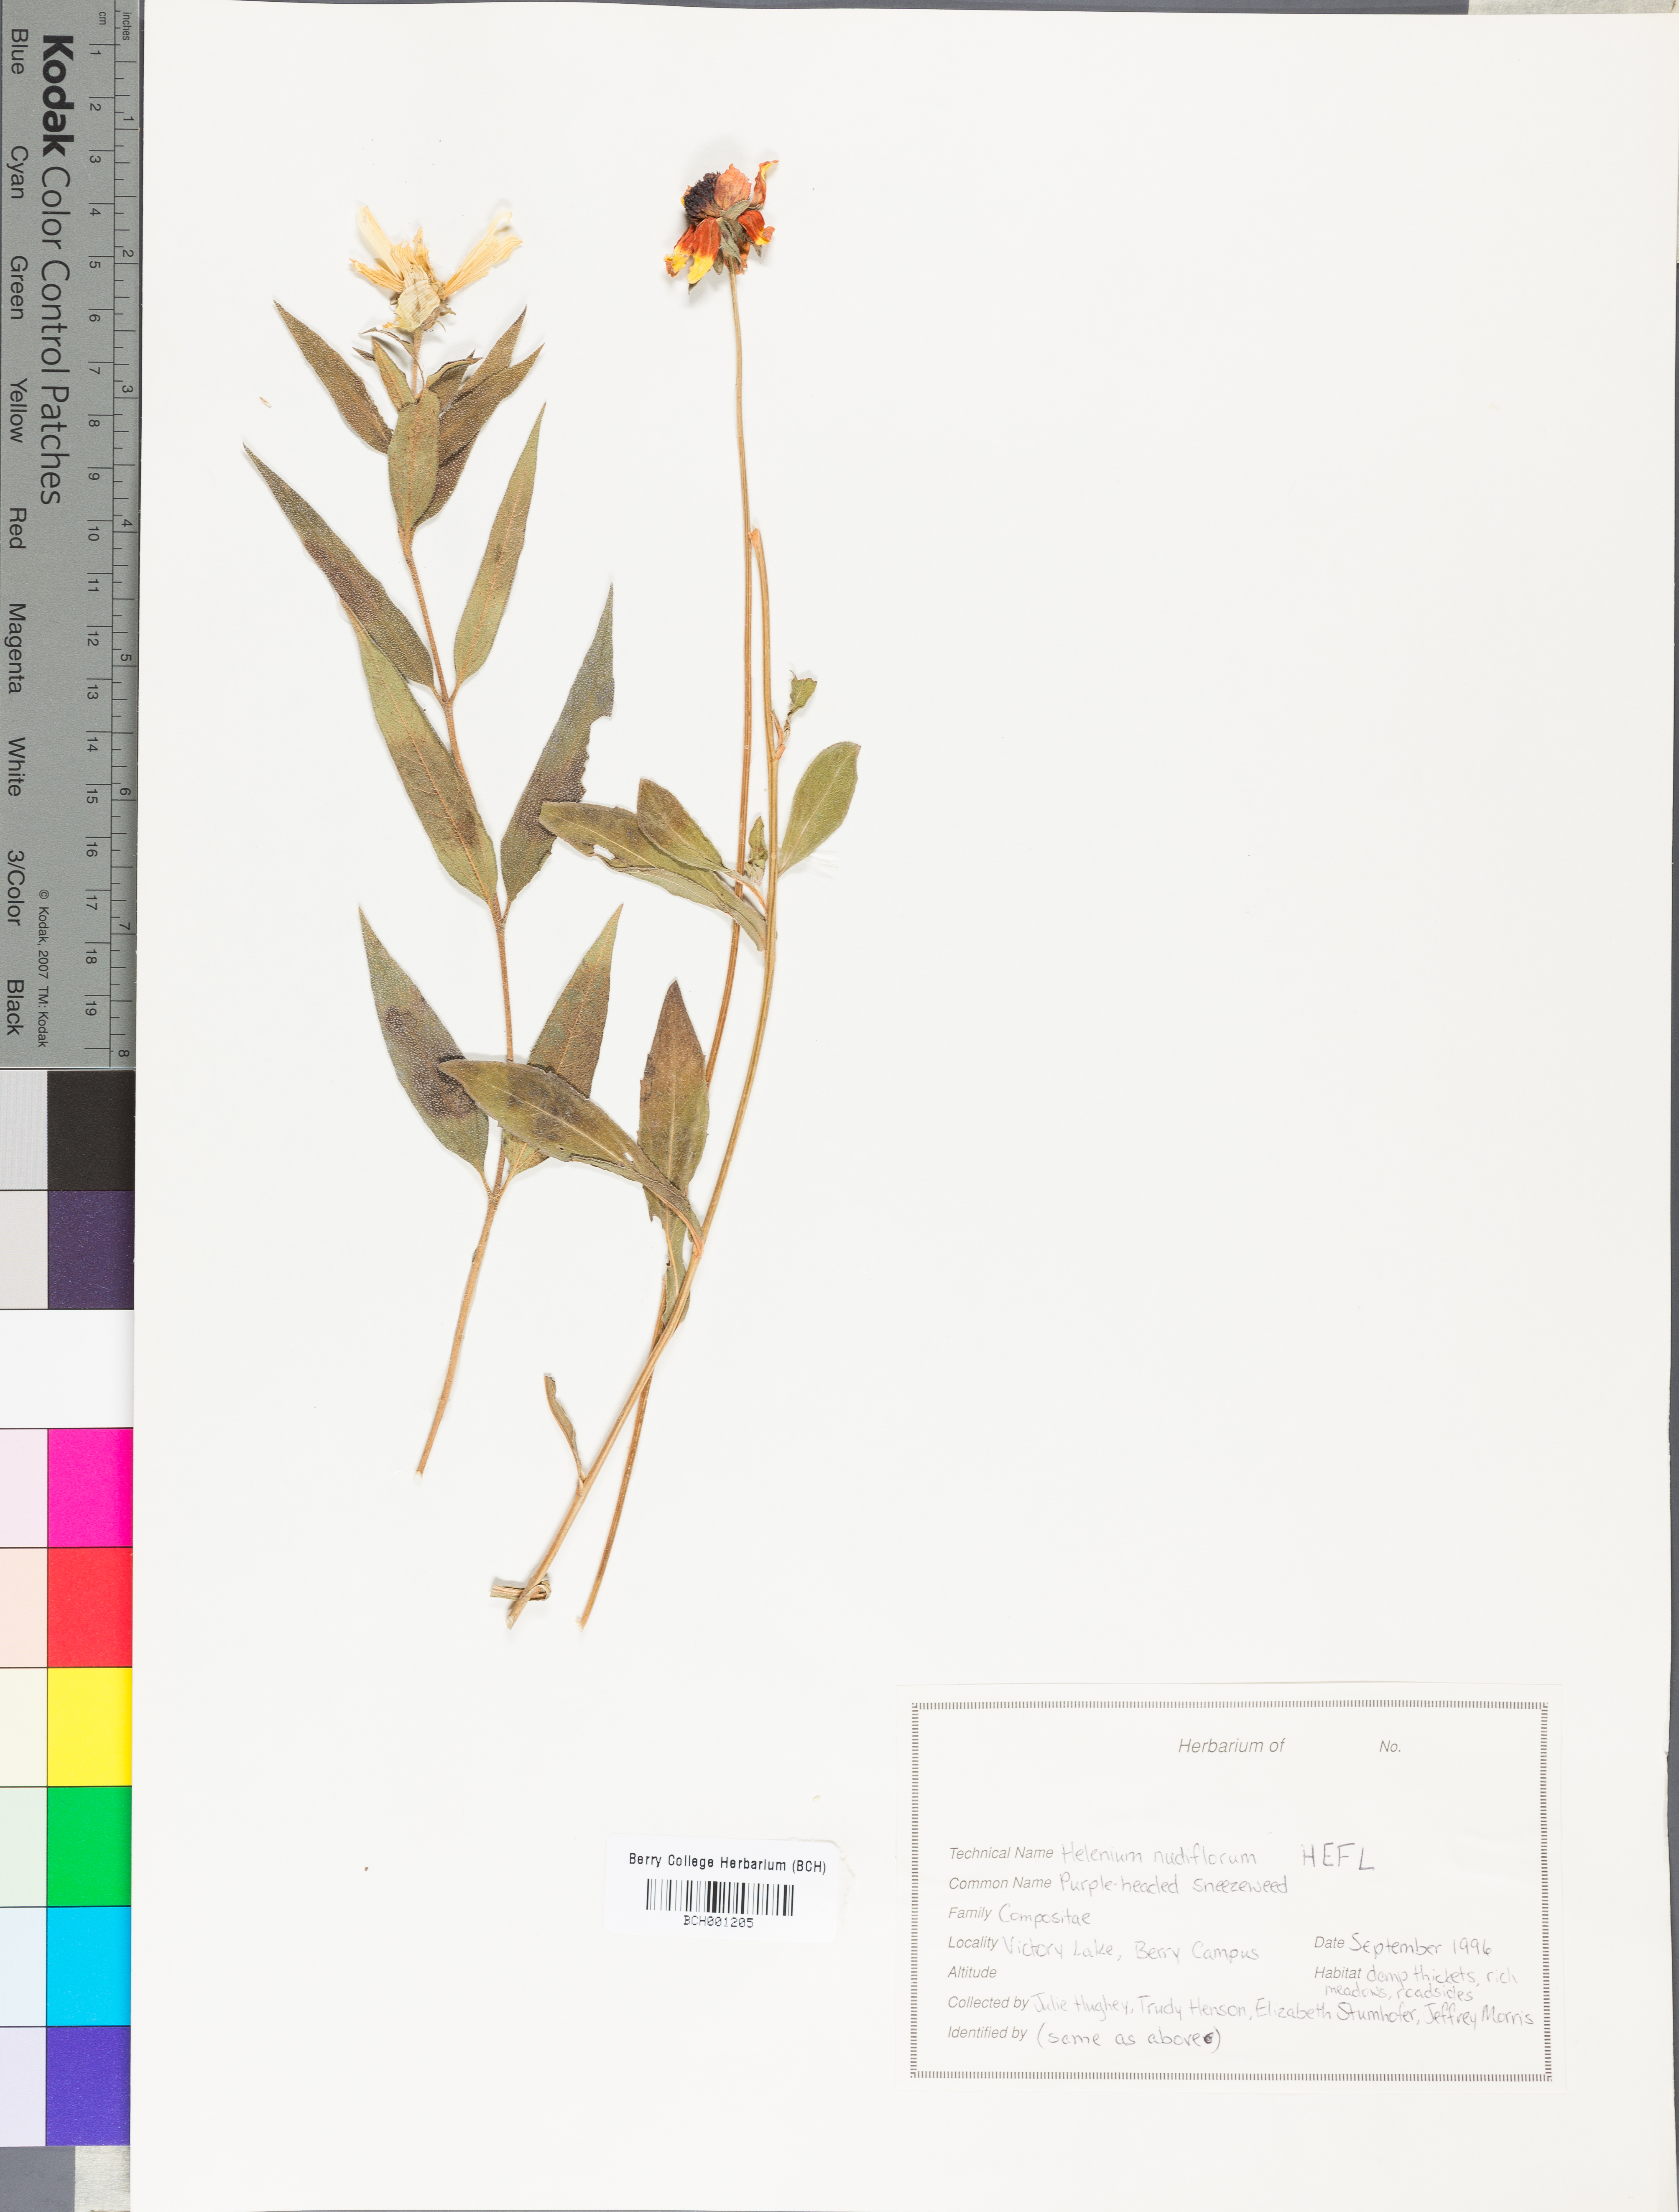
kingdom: Plantae
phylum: Tracheophyta
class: Magnoliopsida
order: Asterales
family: Asteraceae
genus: Helenium
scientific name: Helenium flexuosum
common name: Naked-flowered sneezeweed
